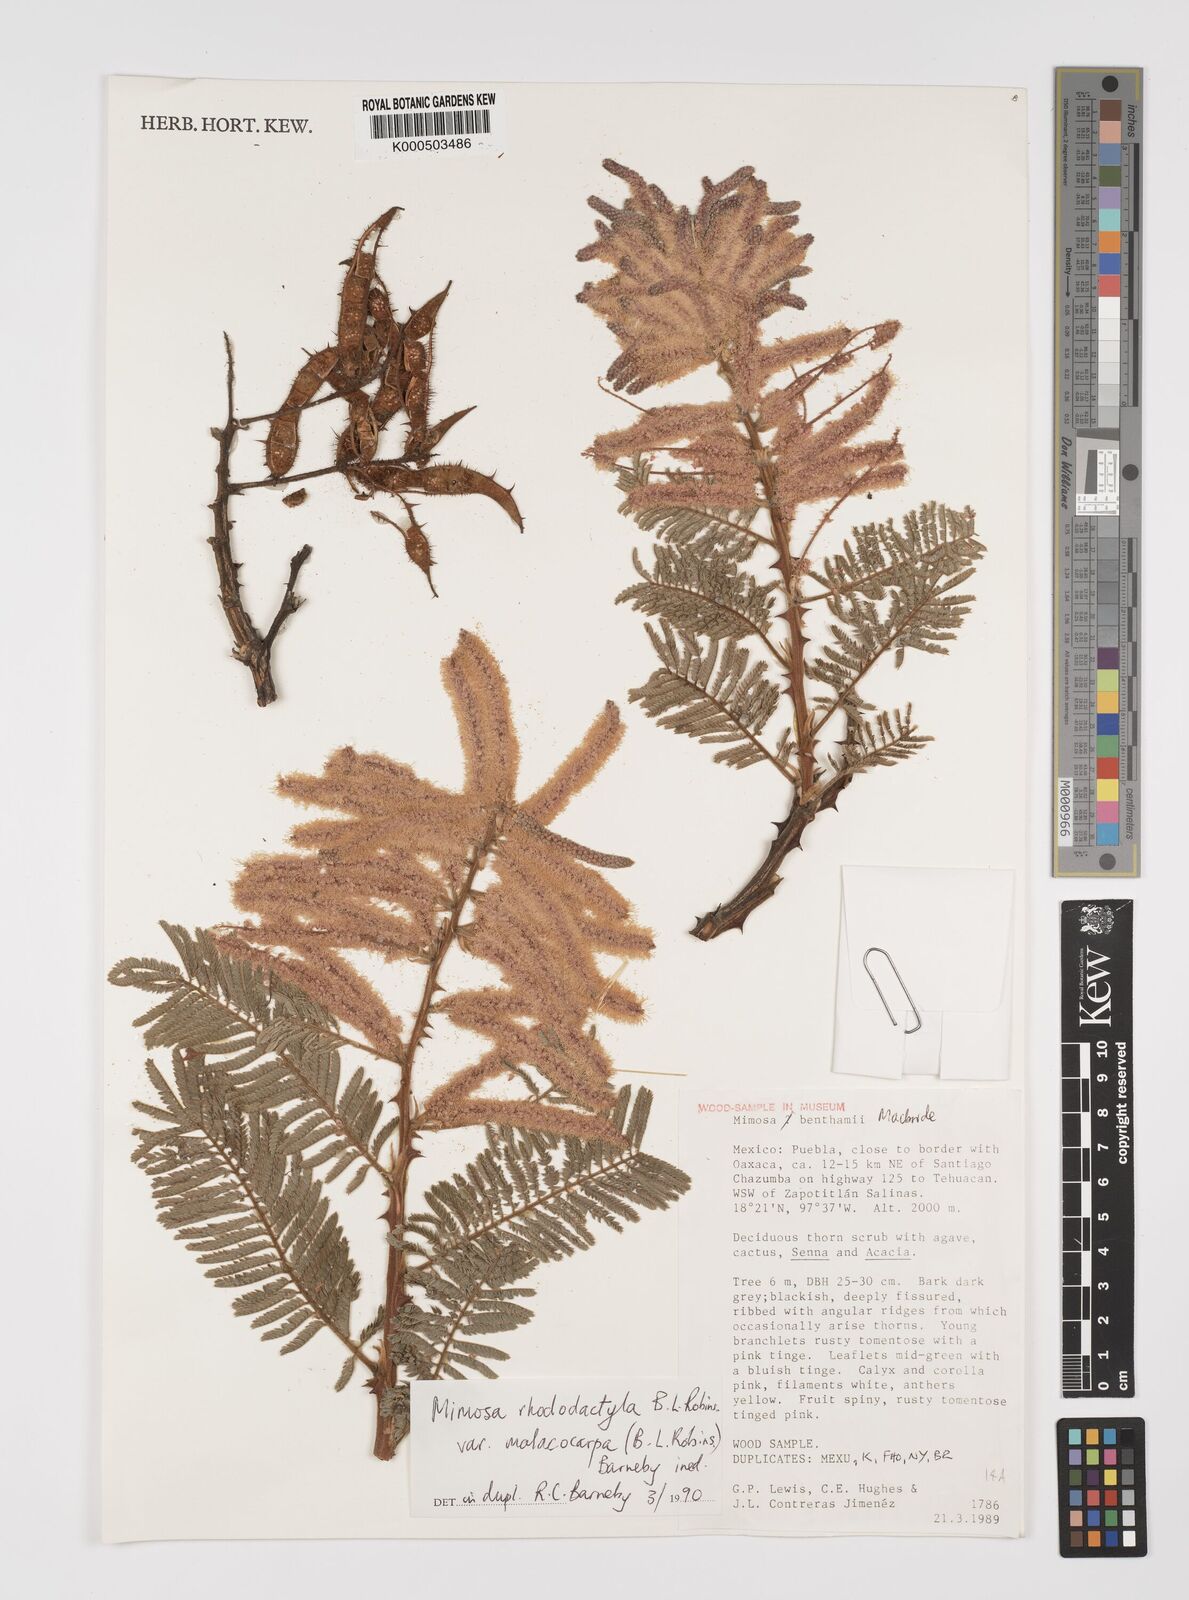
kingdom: Plantae
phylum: Tracheophyta
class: Magnoliopsida
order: Fabales
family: Fabaceae
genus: Mimosa
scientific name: Mimosa rhododactyla
